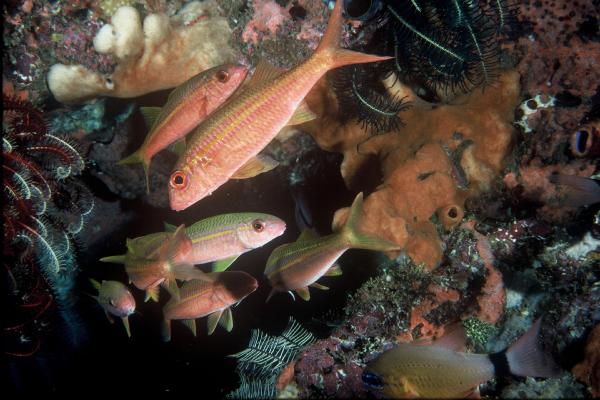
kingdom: Animalia
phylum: Chordata
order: Perciformes
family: Mullidae
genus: Mulloidichthys
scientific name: Mulloidichthys vanicolensis
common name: Yellowfin goatfish
